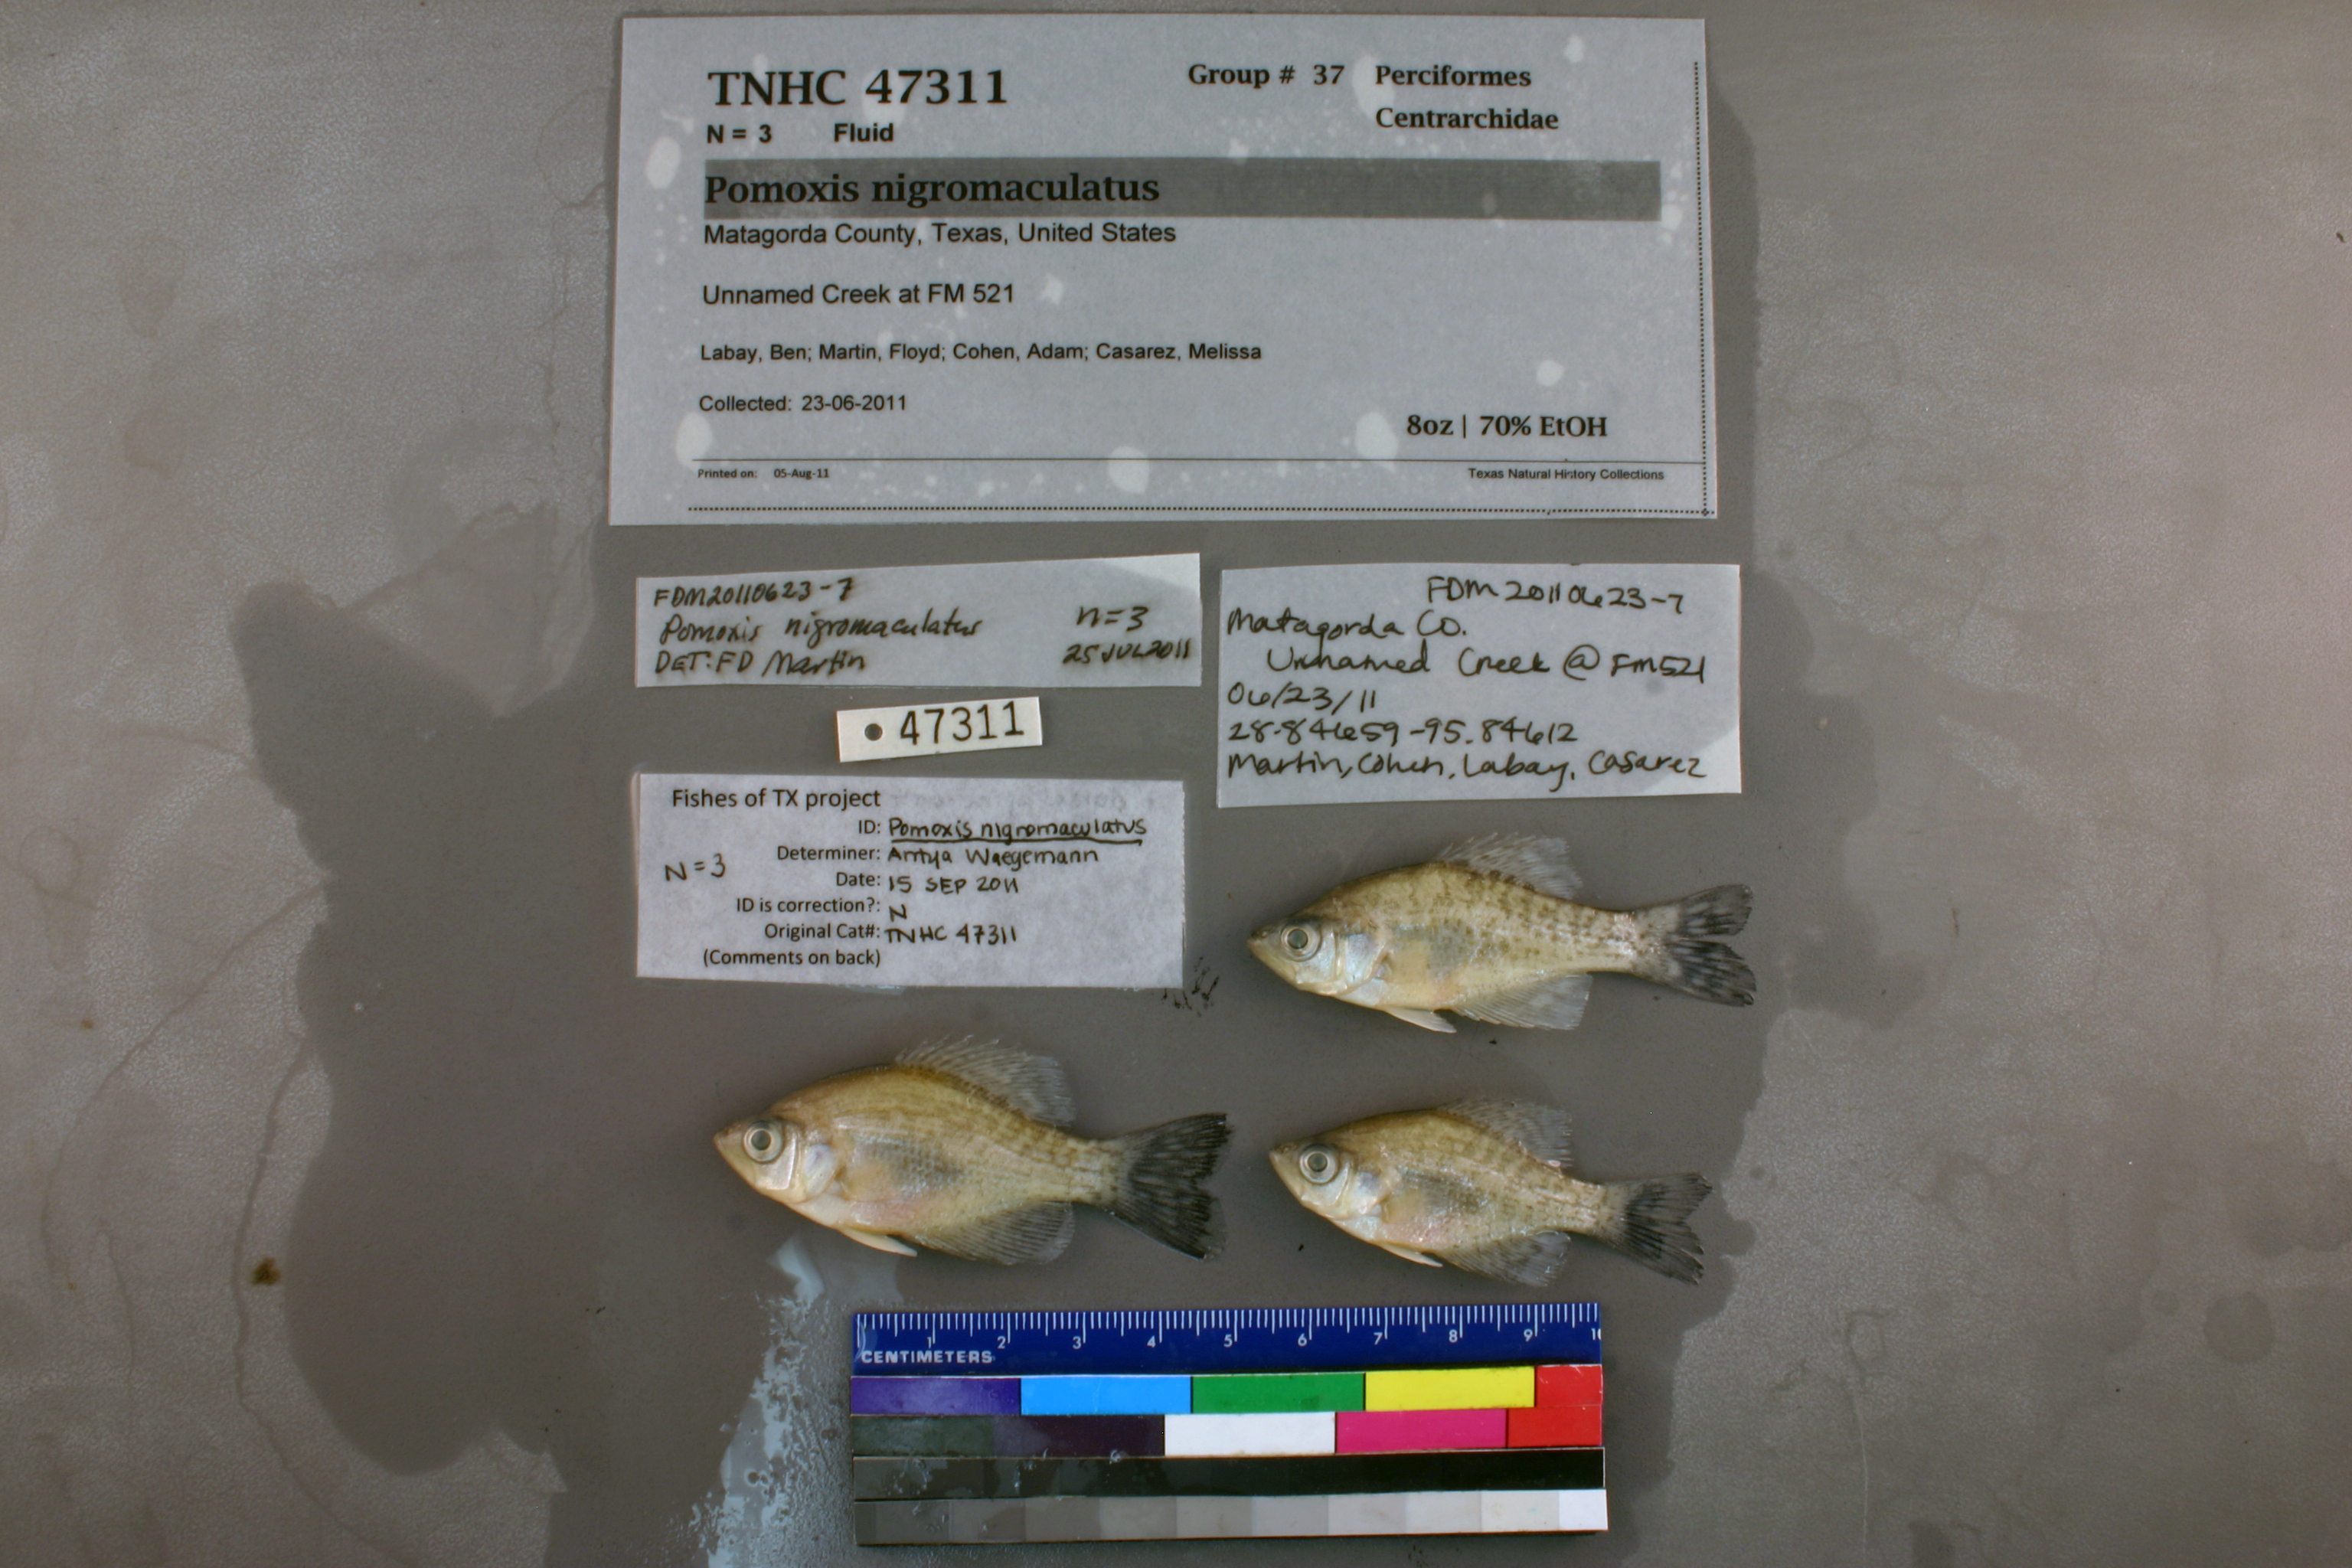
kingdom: Animalia
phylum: Chordata
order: Perciformes
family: Centrarchidae
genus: Pomoxis
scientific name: Pomoxis nigromaculatus
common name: Black crappie
